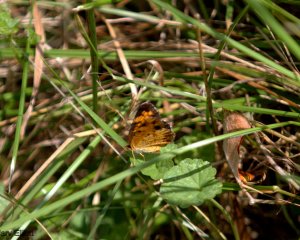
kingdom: Animalia
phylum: Arthropoda
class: Insecta
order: Lepidoptera
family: Nymphalidae
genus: Phyciodes
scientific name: Phyciodes
